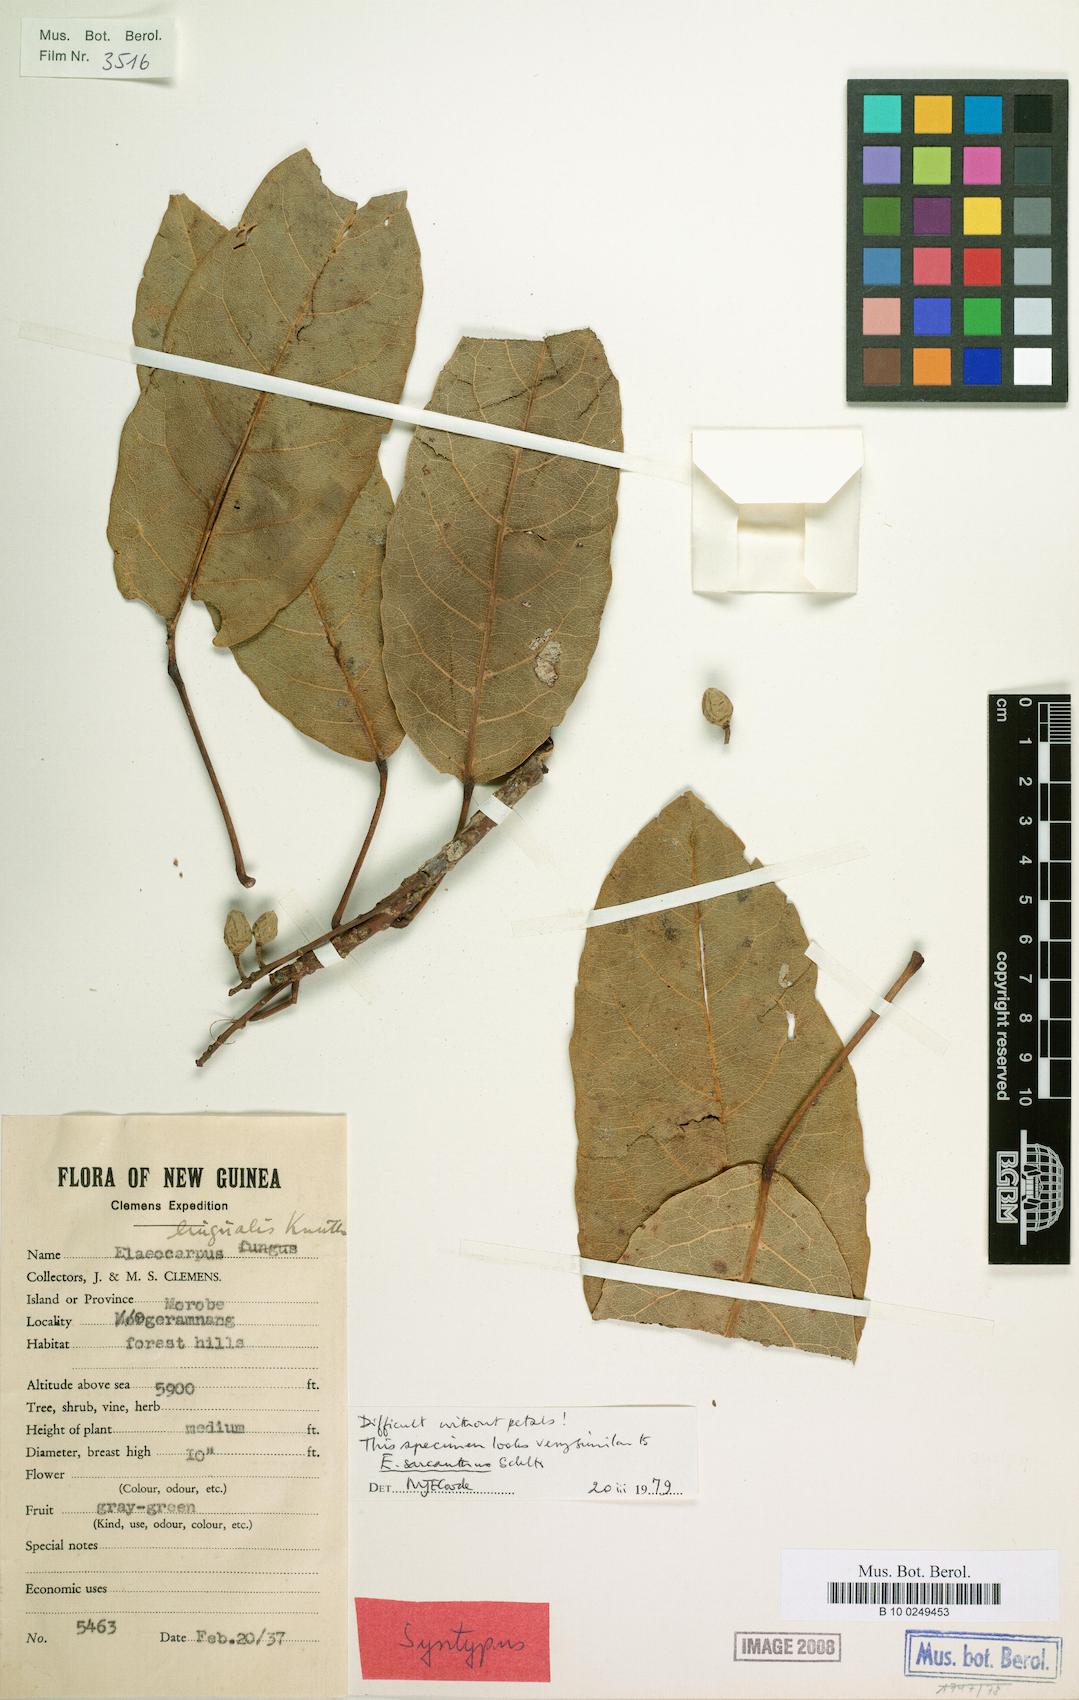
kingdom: Plantae
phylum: Tracheophyta
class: Magnoliopsida
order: Oxalidales
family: Elaeocarpaceae
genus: Elaeocarpus
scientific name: Elaeocarpus lingualis
